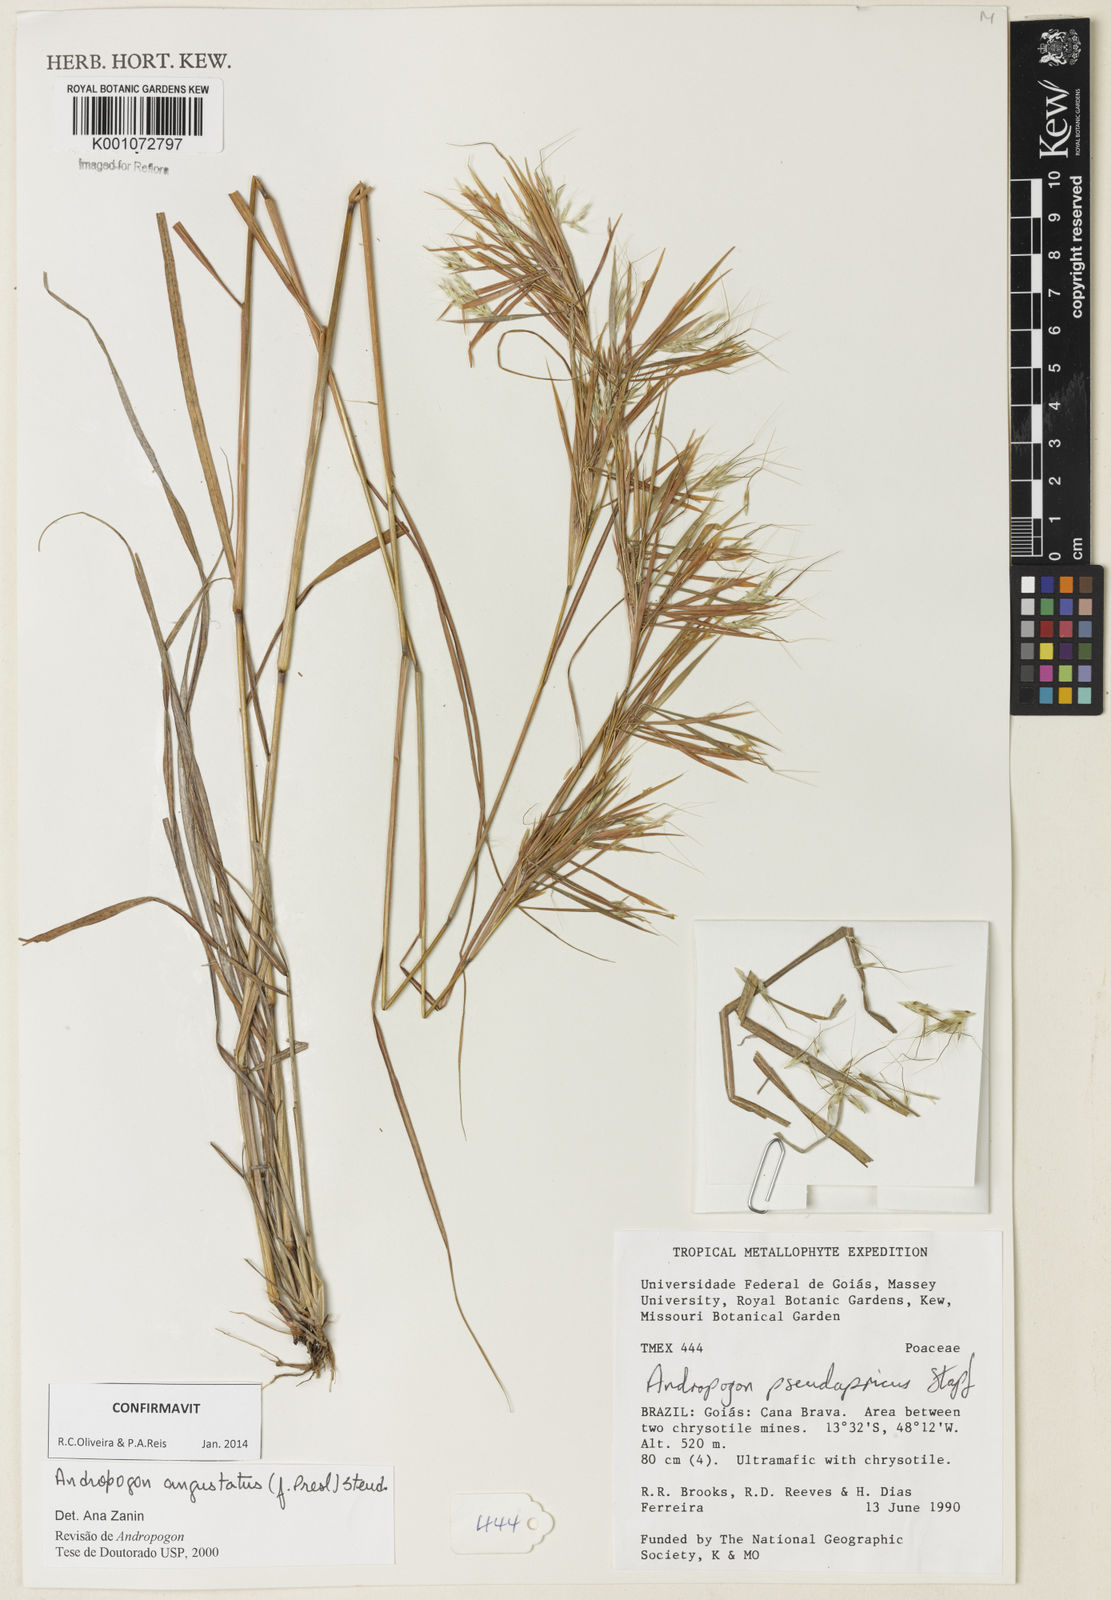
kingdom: Plantae
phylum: Tracheophyta
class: Liliopsida
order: Poales
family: Poaceae
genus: Andropogon
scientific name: Andropogon angustatus
